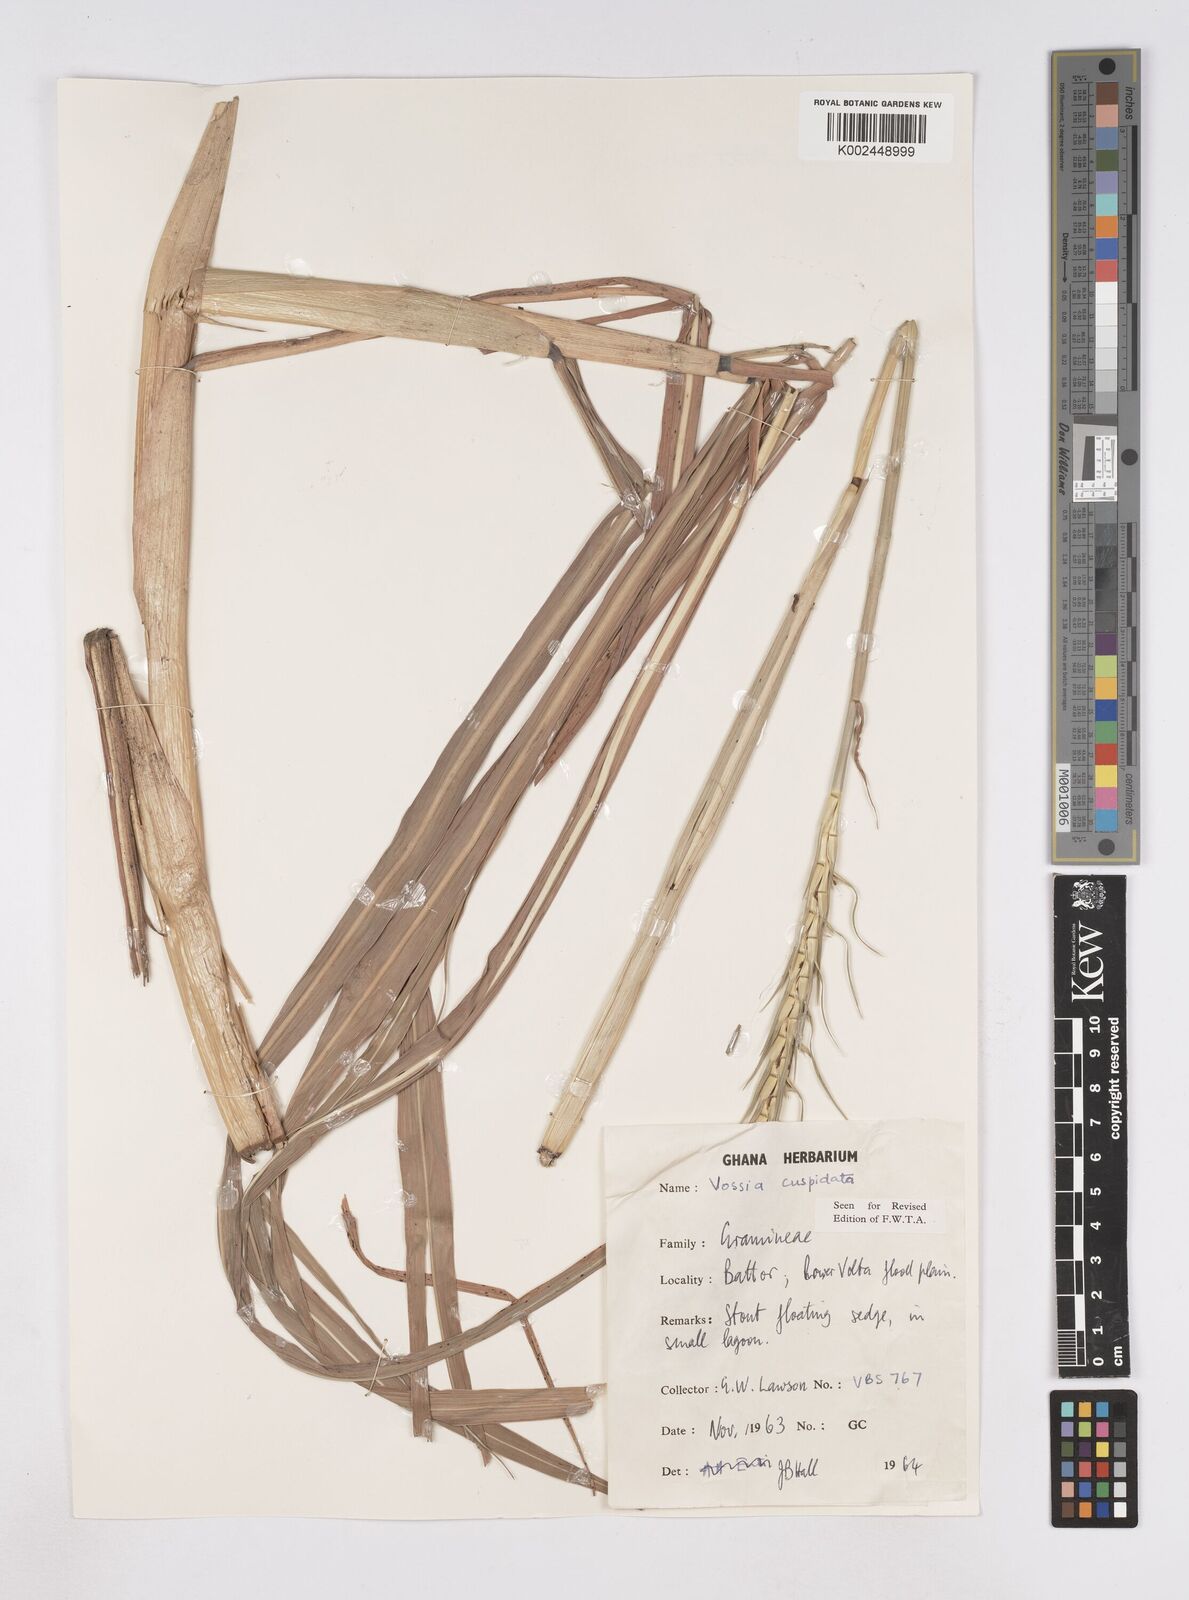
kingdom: Plantae
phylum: Tracheophyta
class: Liliopsida
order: Poales
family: Poaceae
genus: Vossia
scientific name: Vossia cuspidata
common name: Hippo grass
